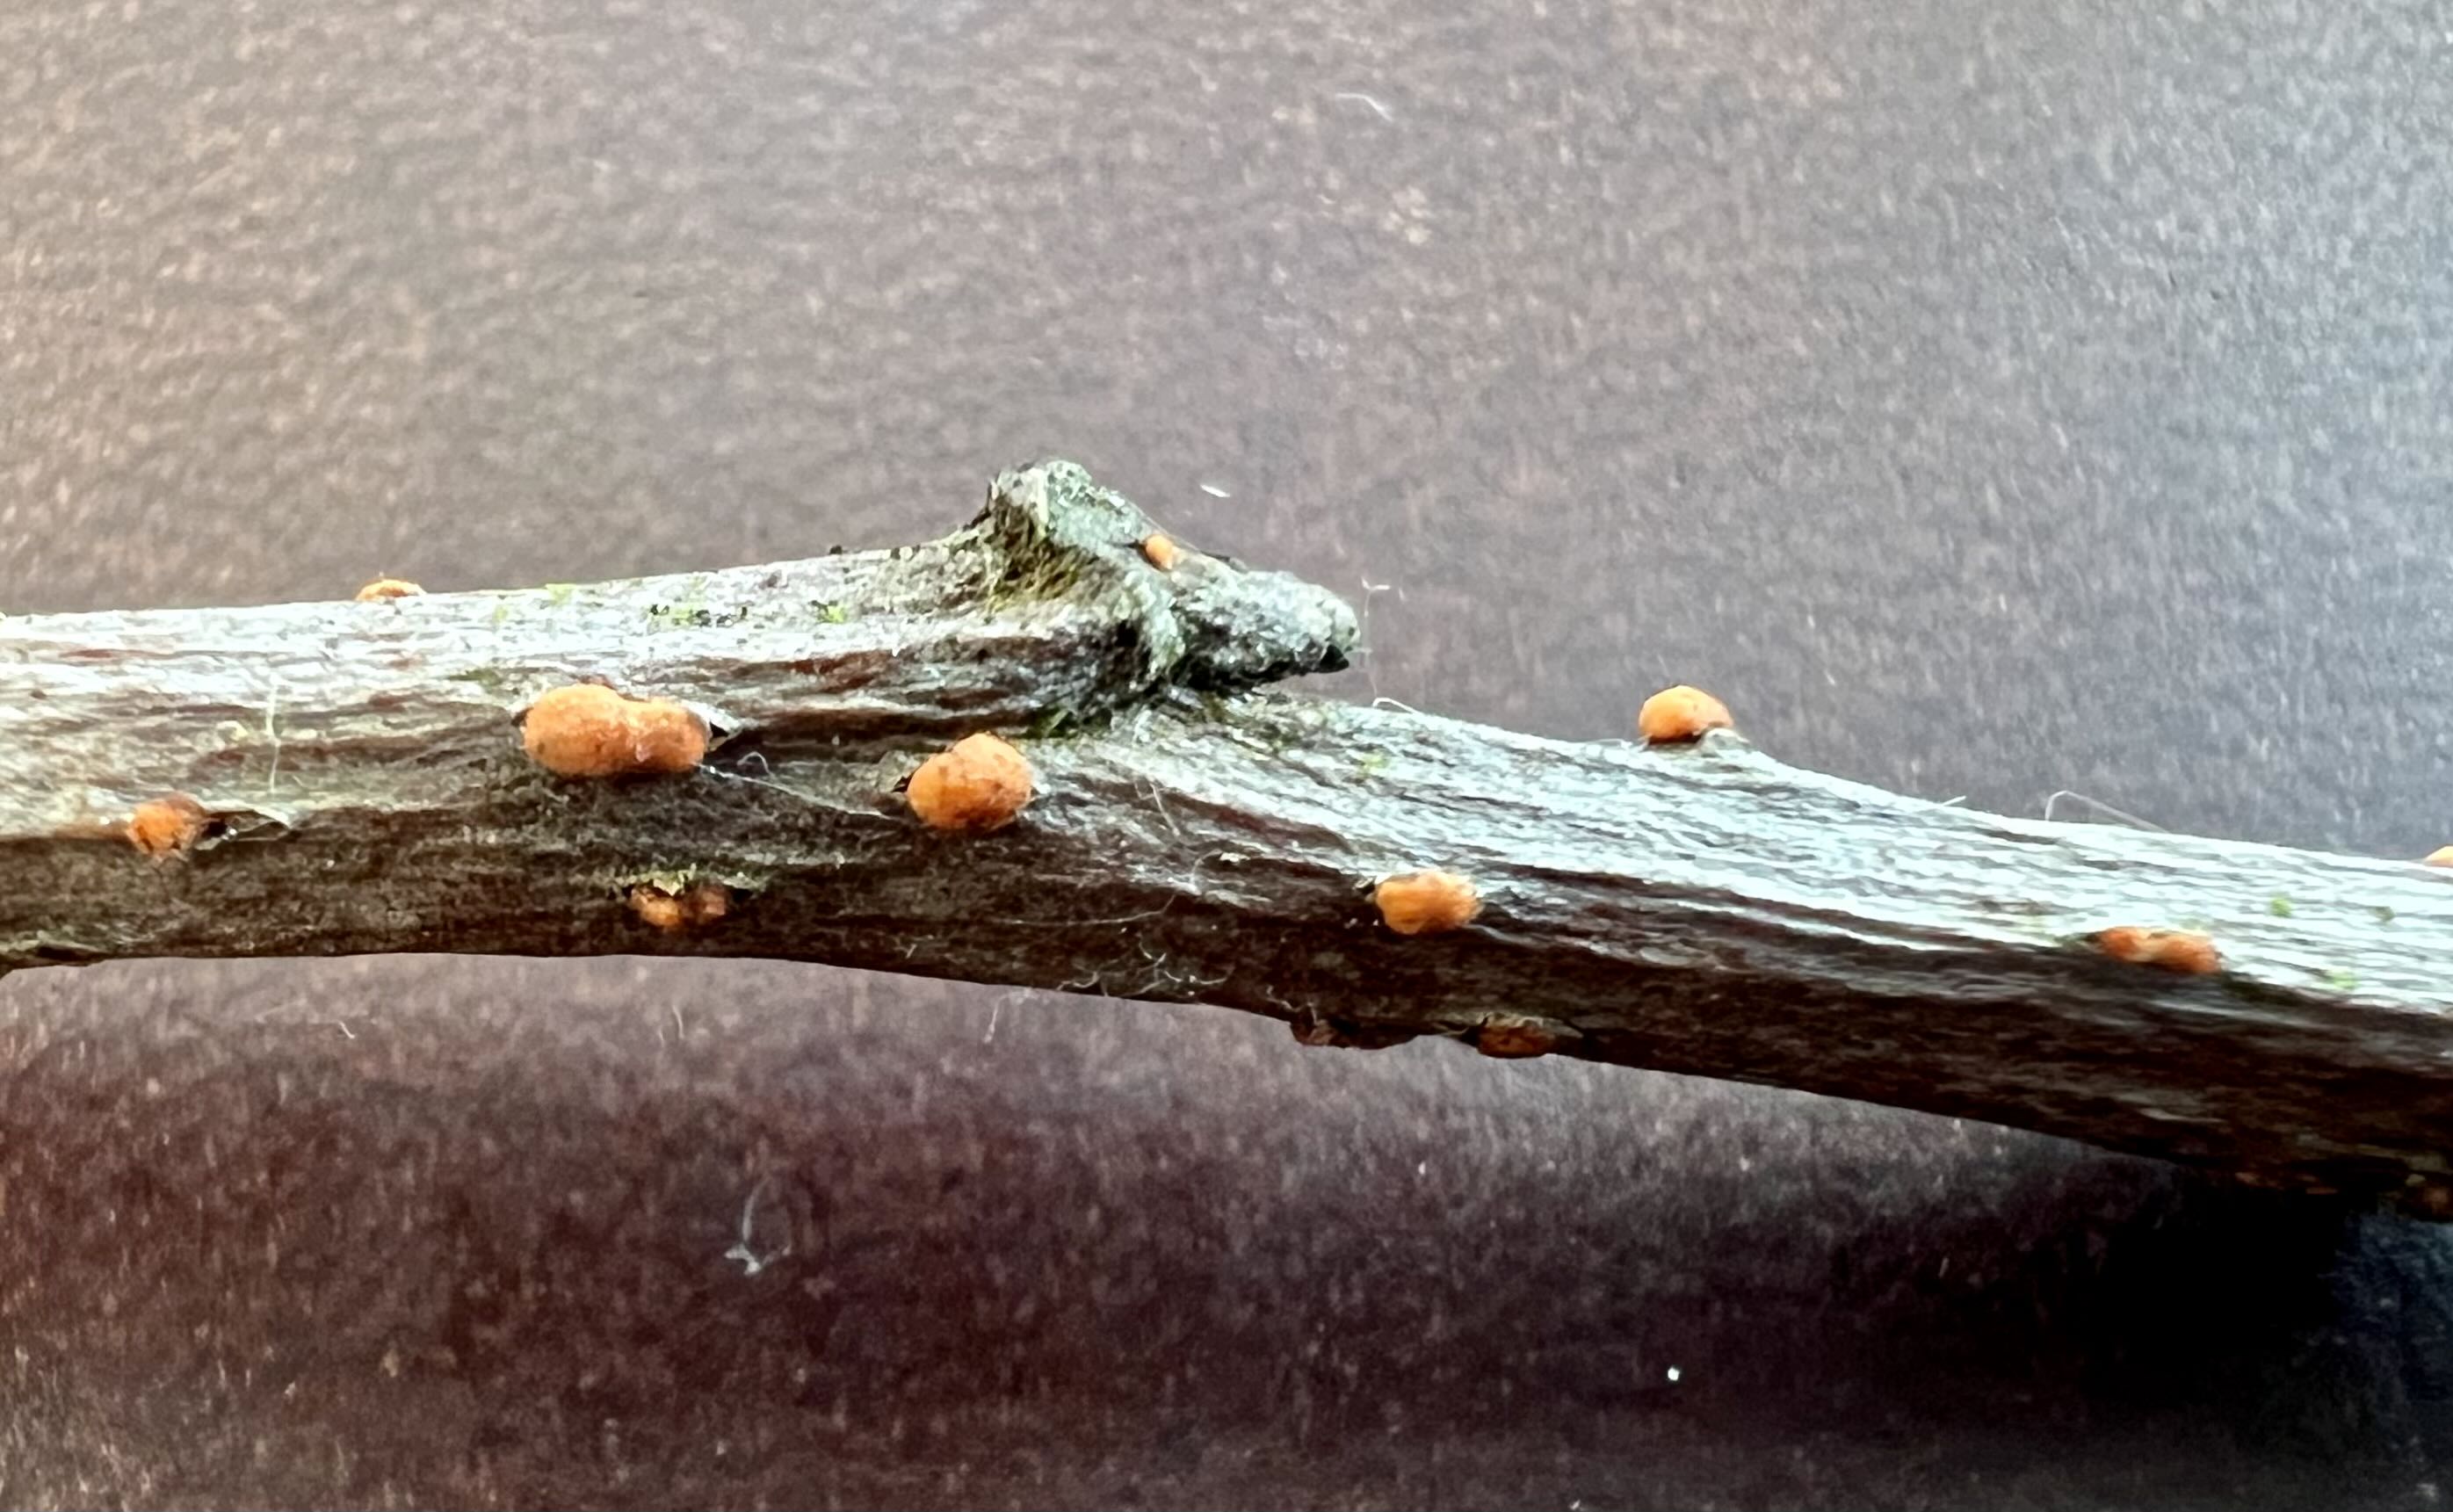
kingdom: Fungi
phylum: Ascomycota
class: Sordariomycetes
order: Hypocreales
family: Nectriaceae
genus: Nectria
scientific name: Nectria cinnabarina
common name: almindelig cinnobersvamp
